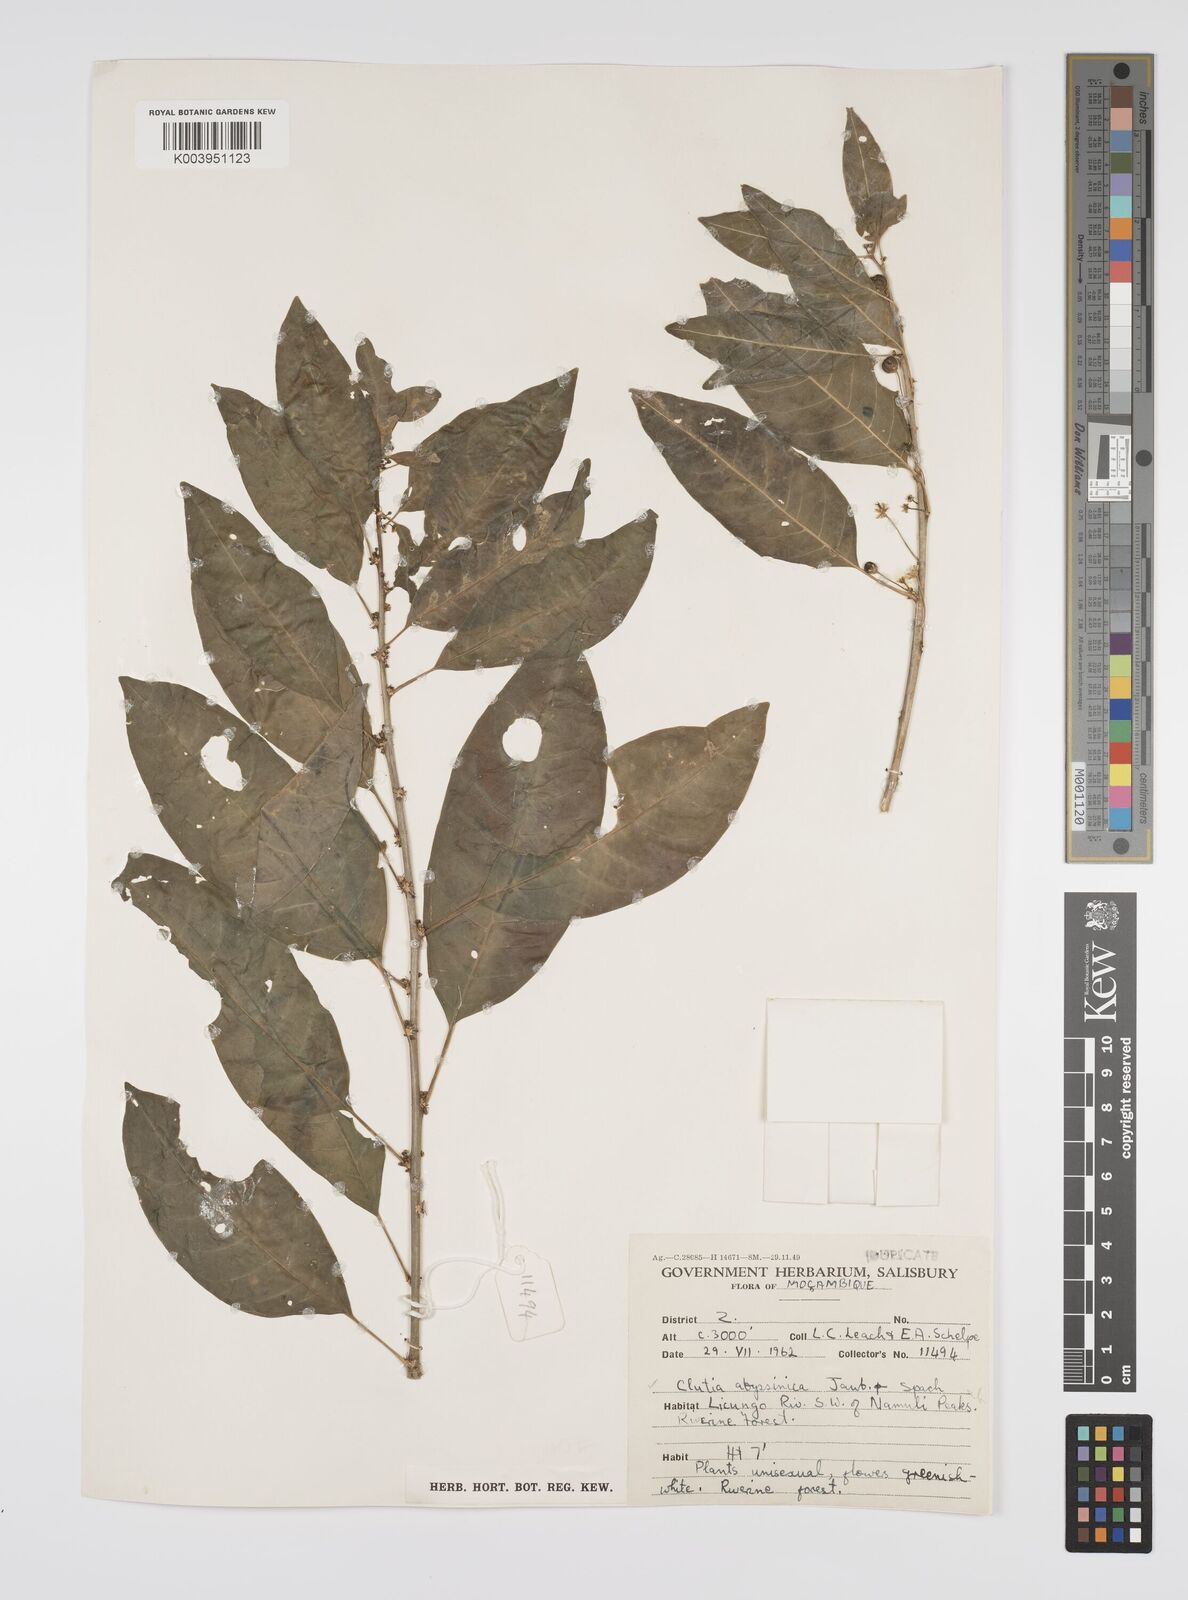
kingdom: Plantae
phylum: Tracheophyta
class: Magnoliopsida
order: Malpighiales
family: Peraceae
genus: Clutia
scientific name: Clutia abyssinica
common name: Large lightning bush
